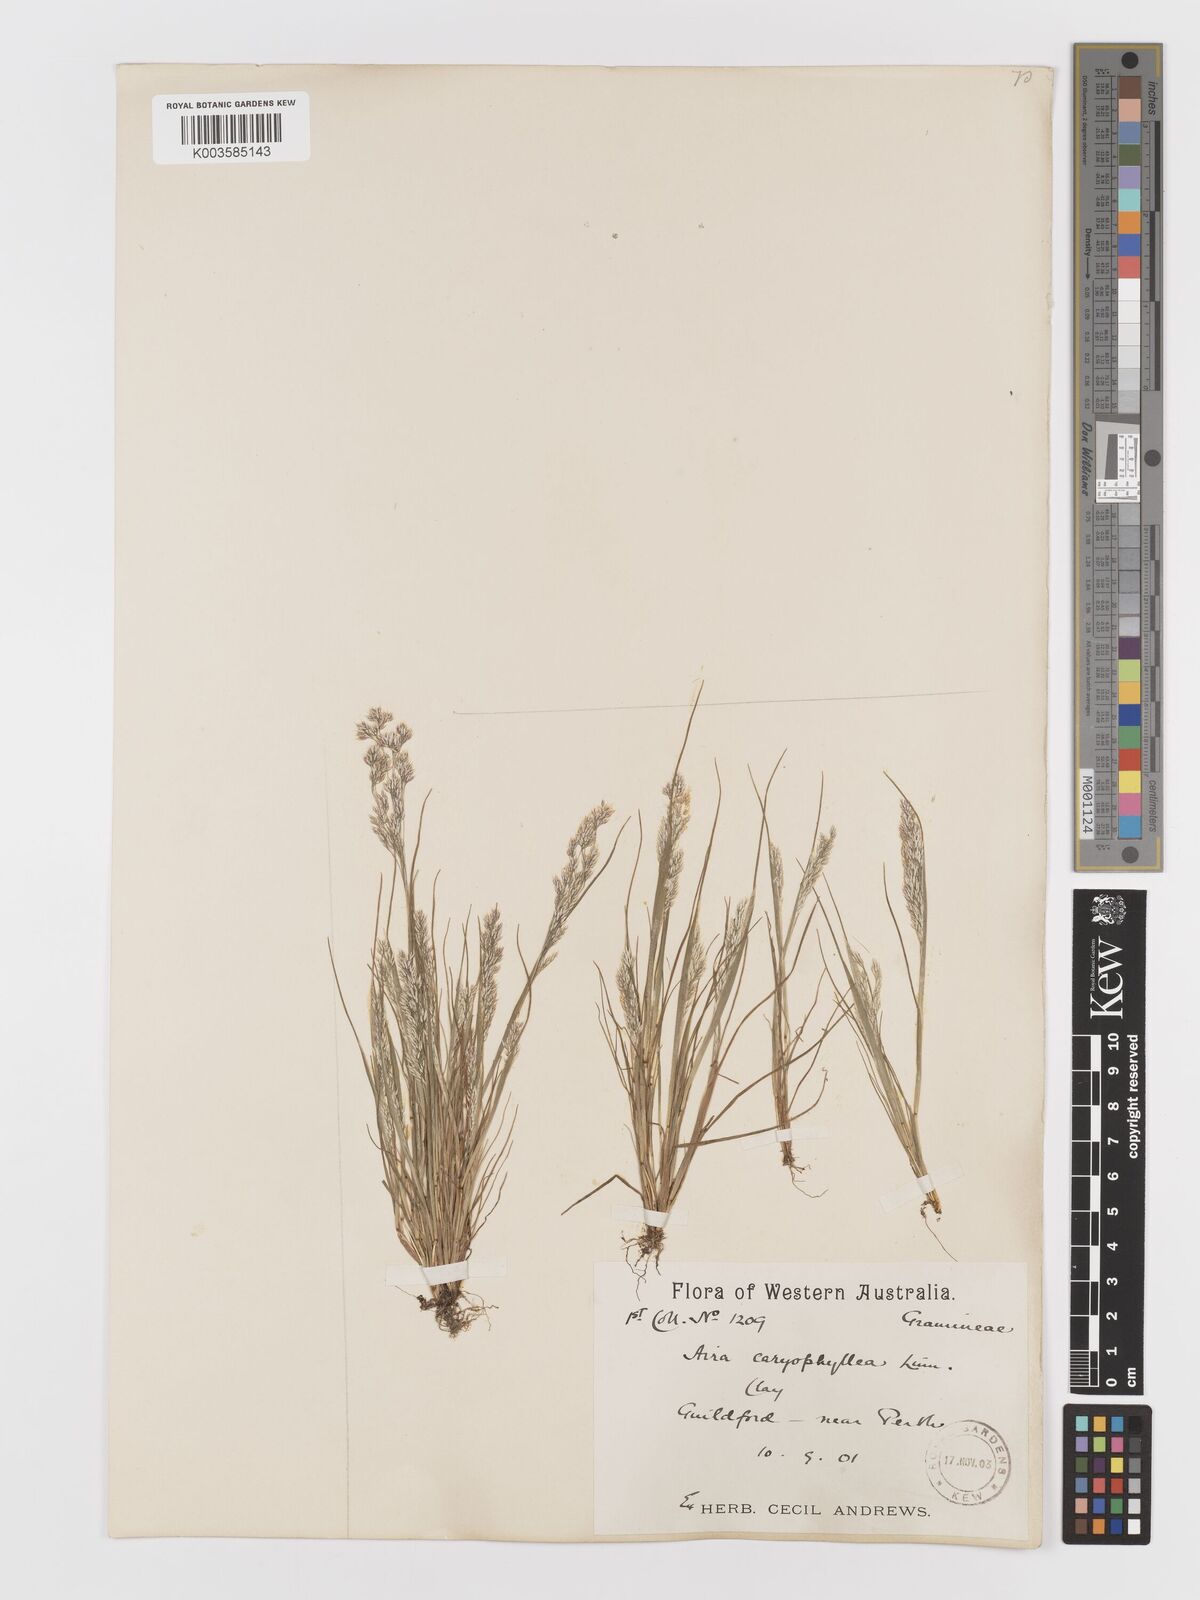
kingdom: Plantae
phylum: Tracheophyta
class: Liliopsida
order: Poales
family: Poaceae
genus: Aira
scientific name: Aira cupaniana
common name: Silver hairgrass
